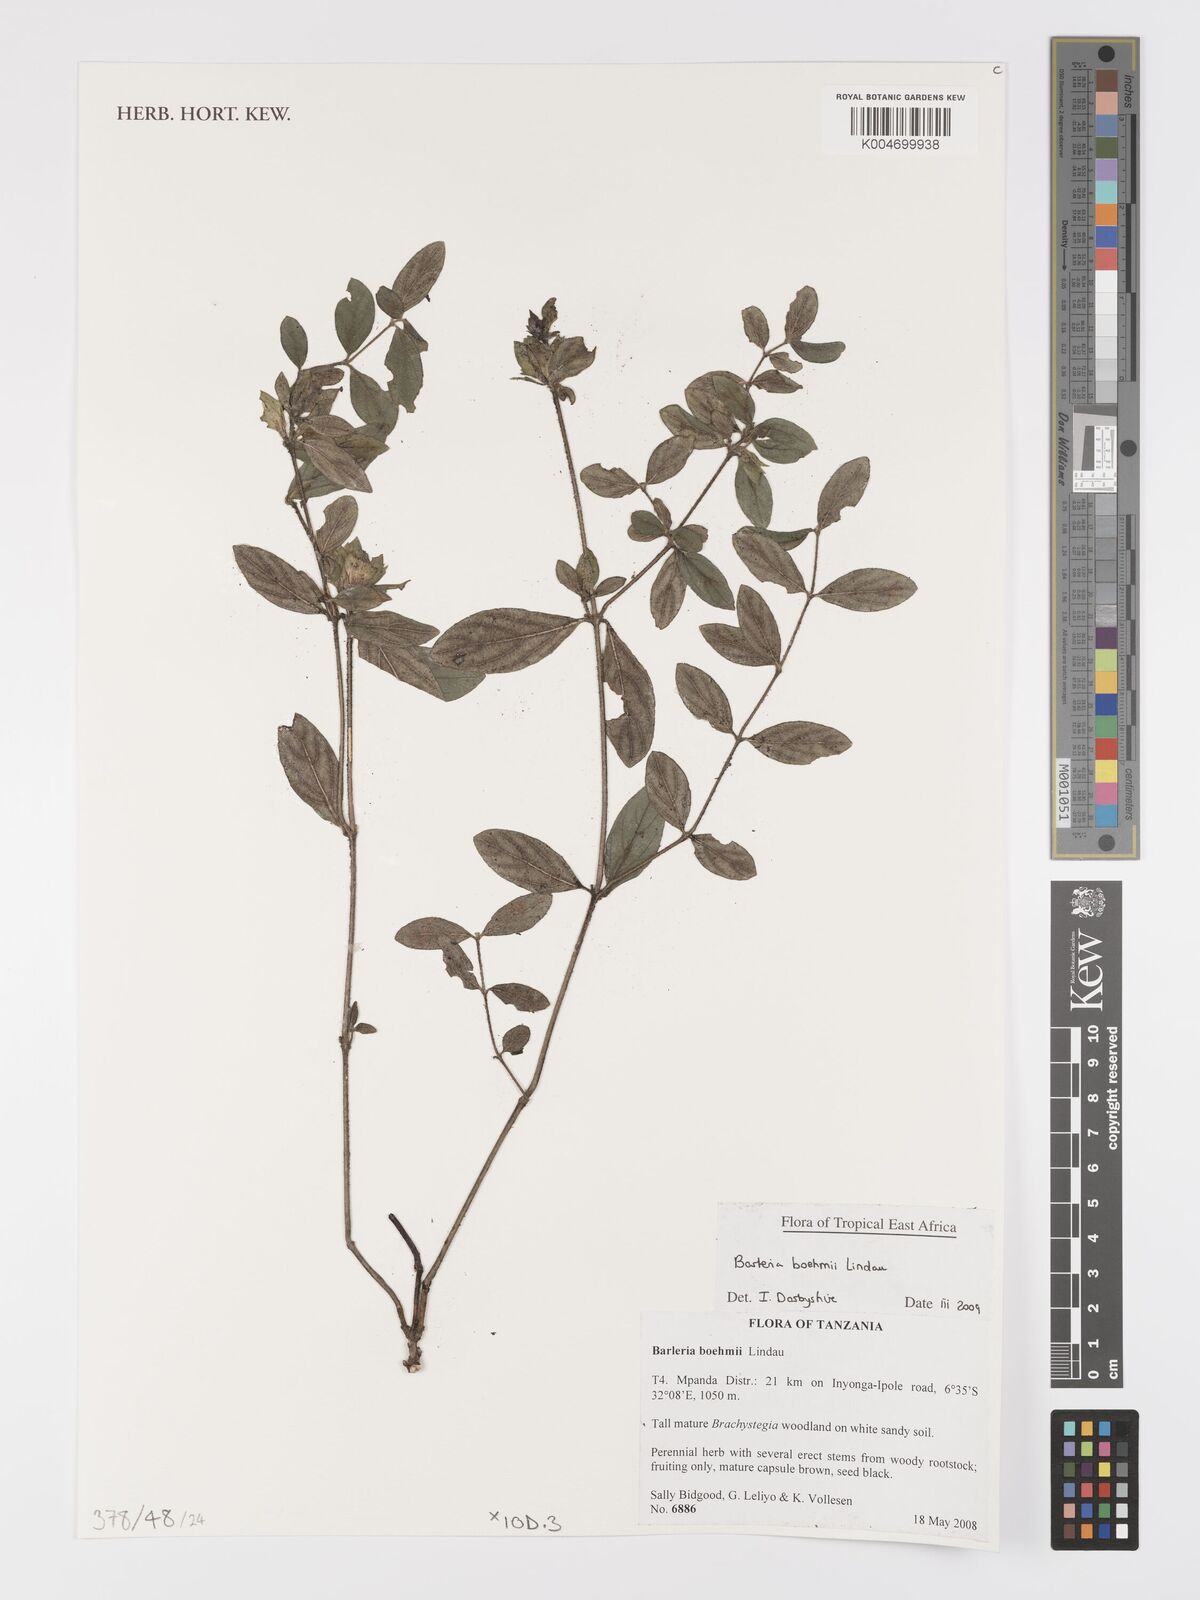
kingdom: Plantae
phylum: Tracheophyta
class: Magnoliopsida
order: Lamiales
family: Acanthaceae
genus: Barleria
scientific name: Barleria boehmii
